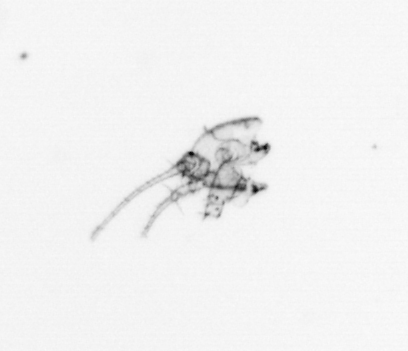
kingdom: Animalia
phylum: Arthropoda
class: Maxillopoda
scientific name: Maxillopoda
